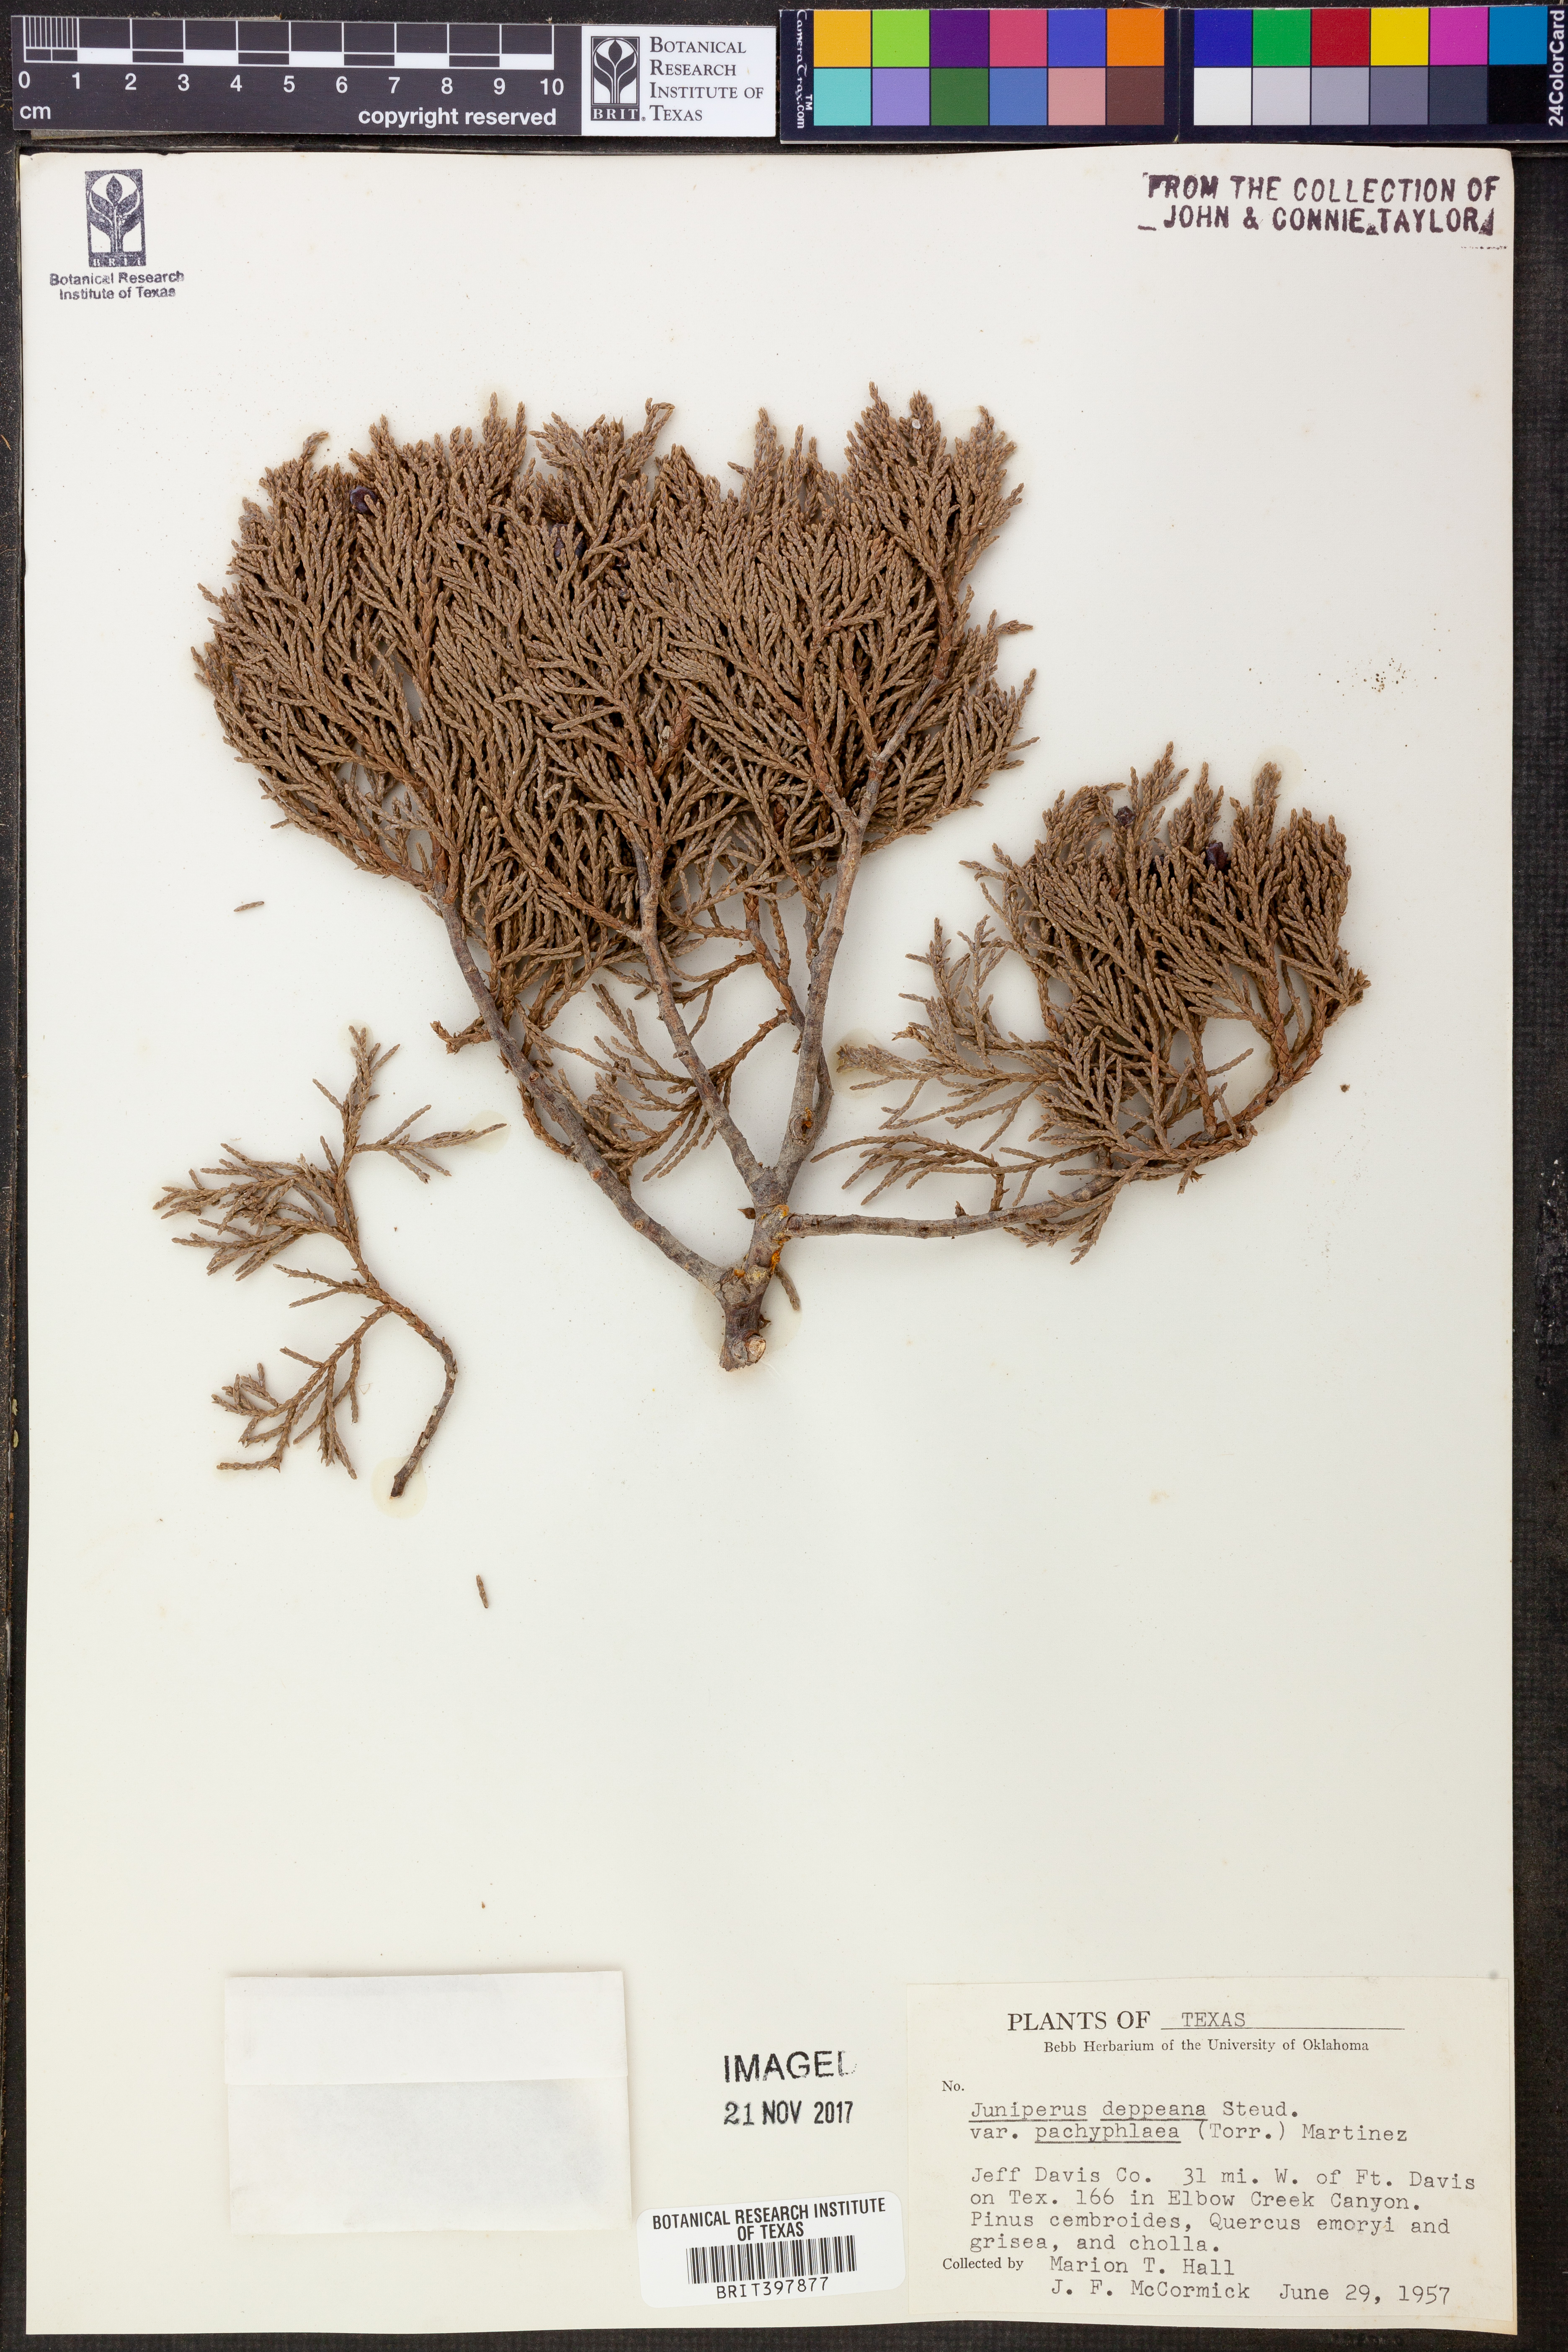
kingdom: Plantae
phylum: Tracheophyta
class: Pinopsida
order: Pinales
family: Cupressaceae
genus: Juniperus
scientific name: Juniperus deppeana
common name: Alligator juniper
